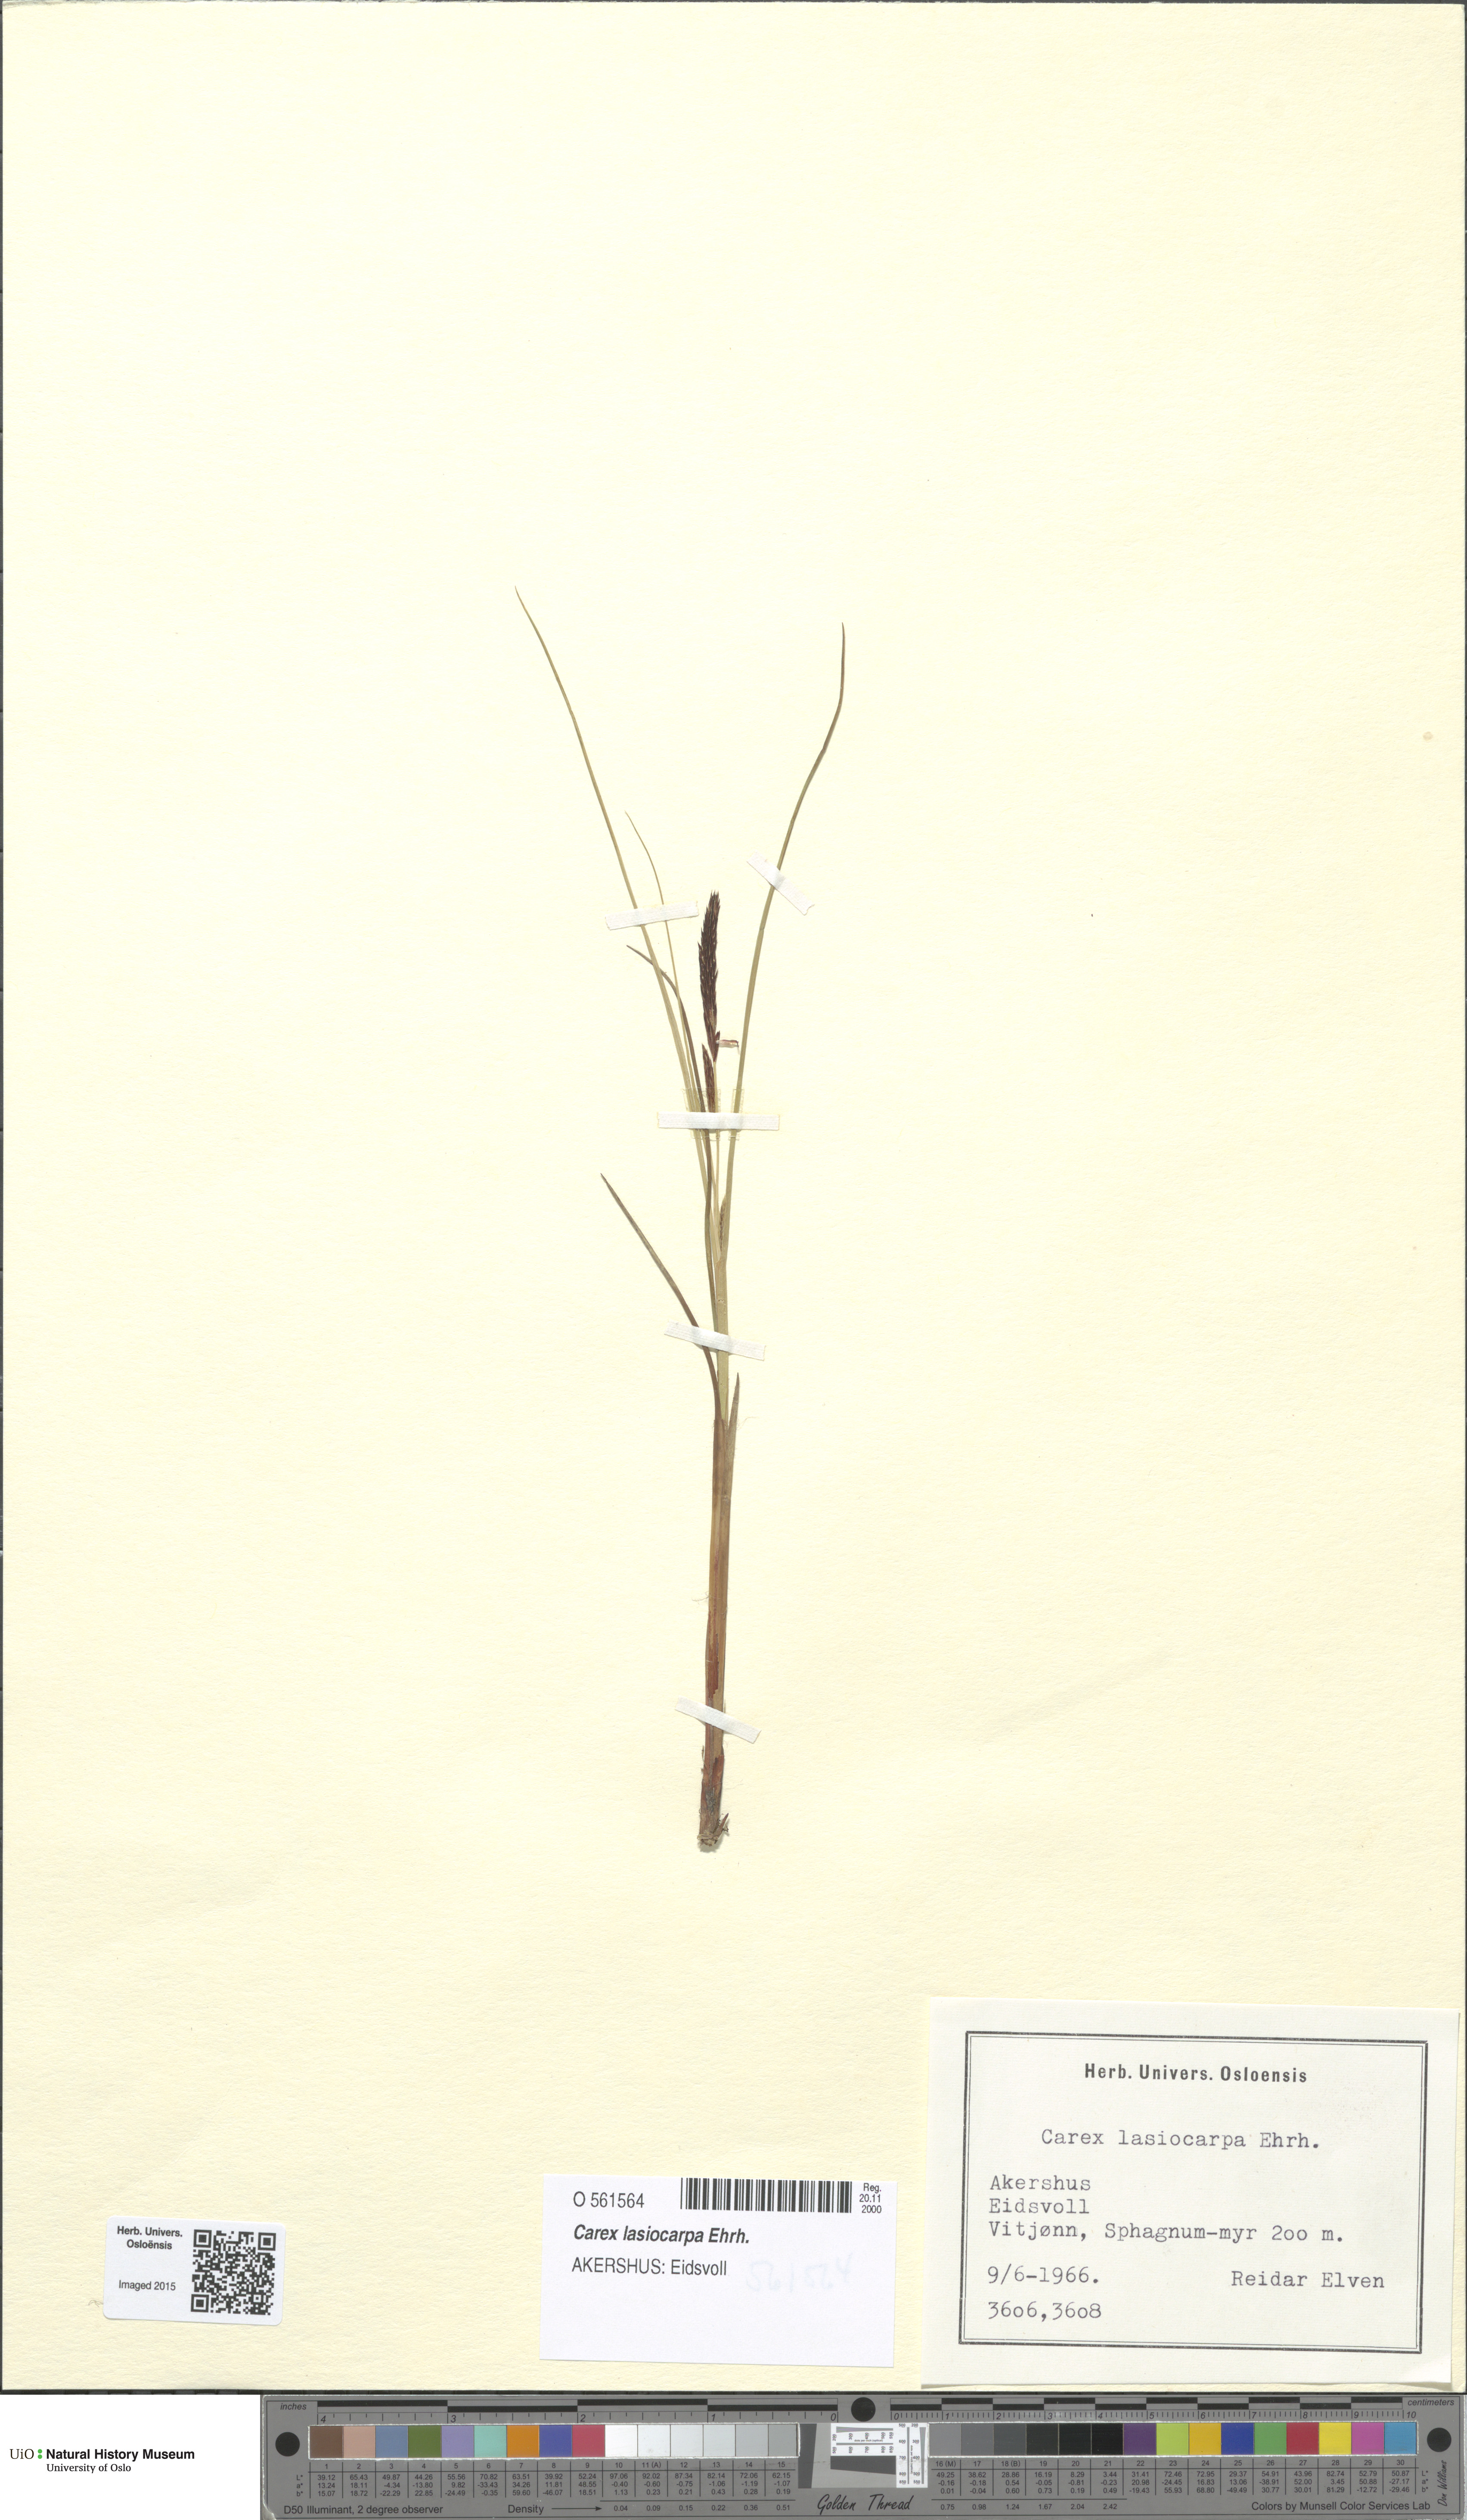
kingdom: Plantae
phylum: Tracheophyta
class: Liliopsida
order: Poales
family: Cyperaceae
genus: Carex
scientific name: Carex lasiocarpa
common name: Slender sedge
